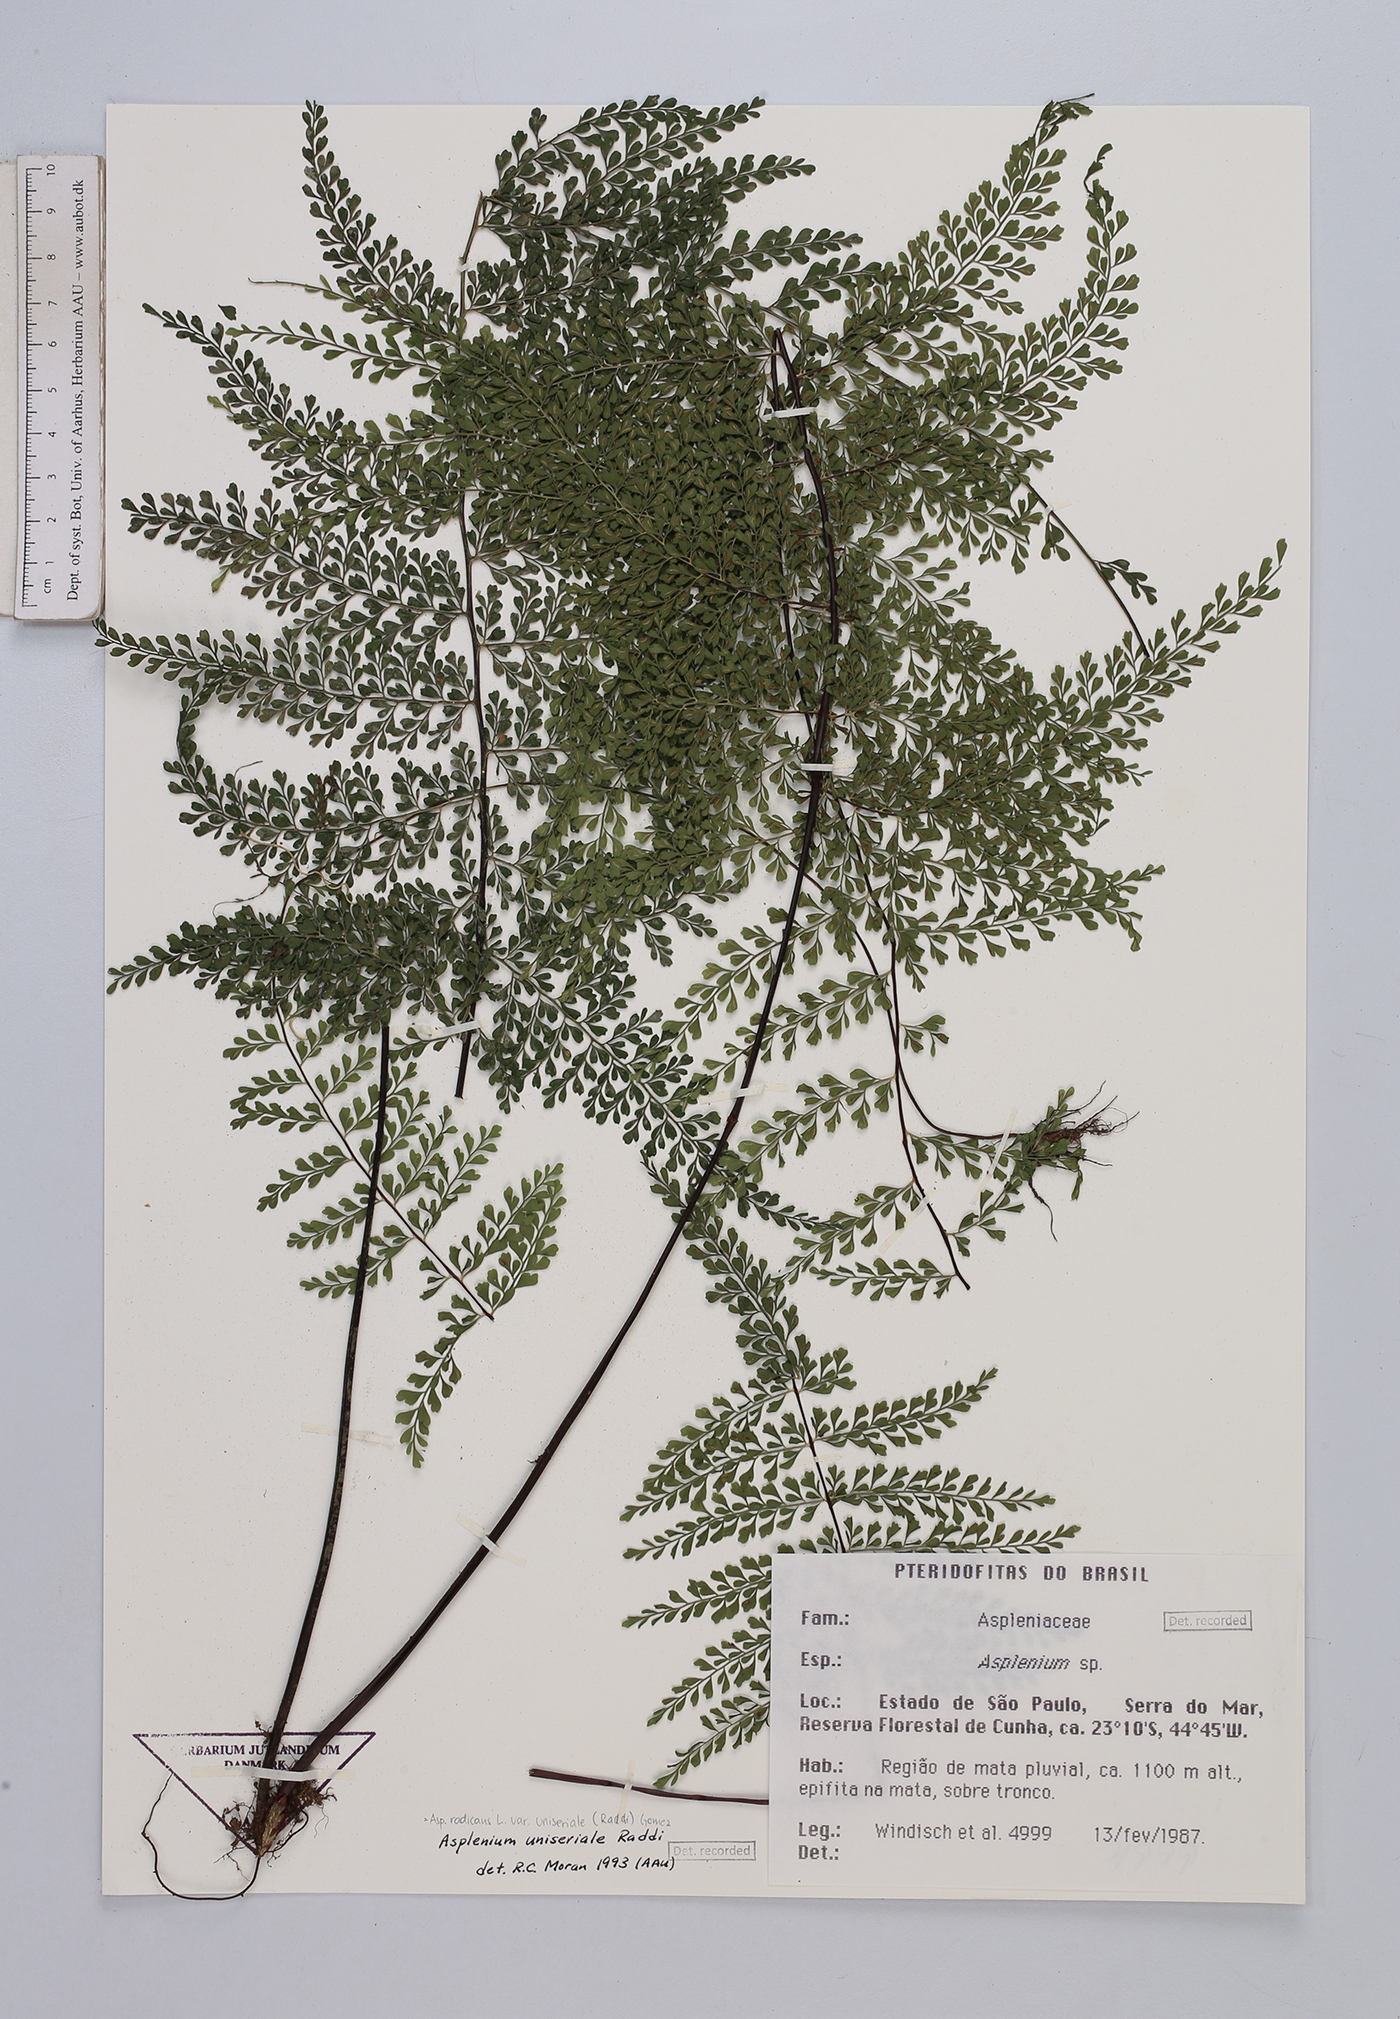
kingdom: Plantae
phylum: Tracheophyta
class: Polypodiopsida
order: Polypodiales
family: Aspleniaceae
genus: Asplenium
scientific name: Asplenium uniseriale
